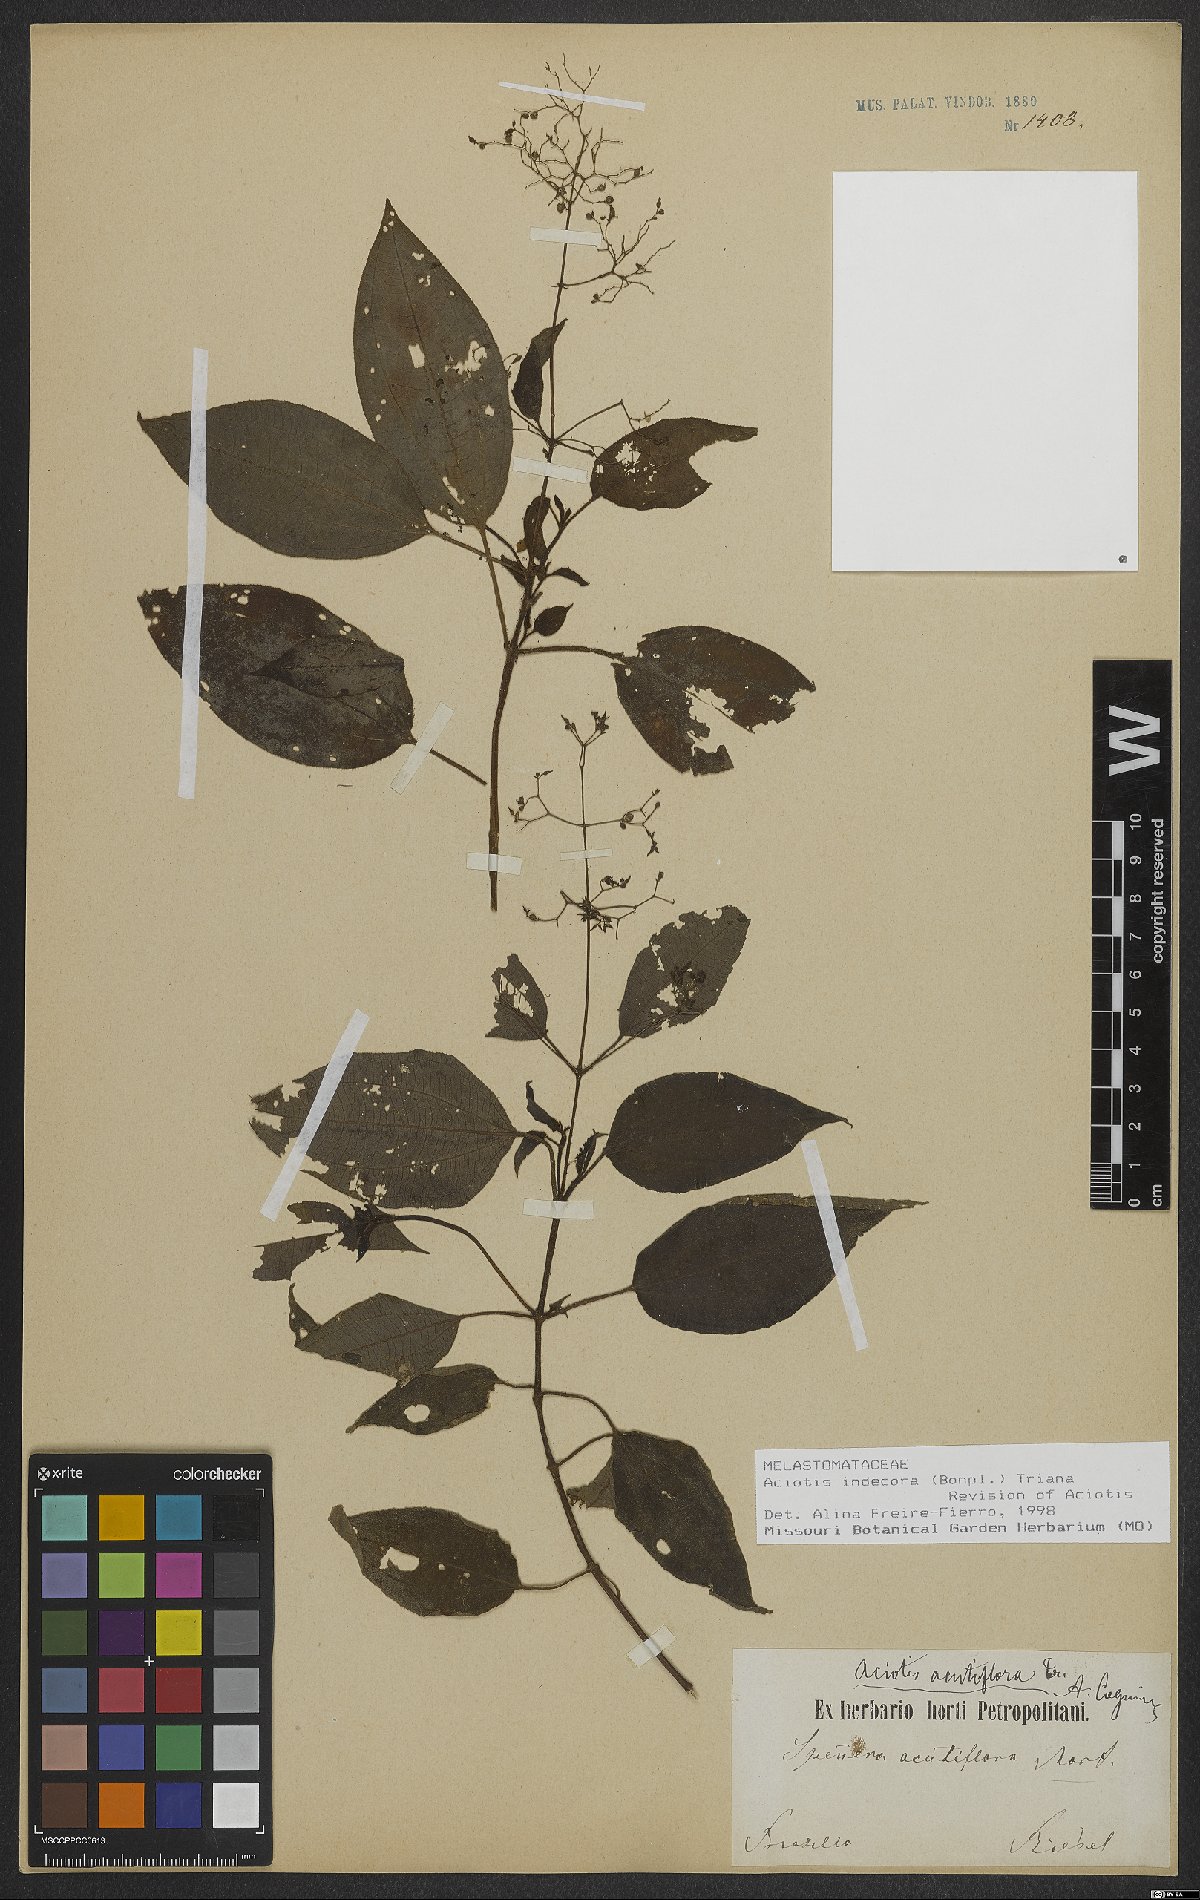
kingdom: Plantae
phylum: Tracheophyta
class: Magnoliopsida
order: Myrtales
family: Melastomataceae
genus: Aciotis
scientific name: Aciotis indecora
